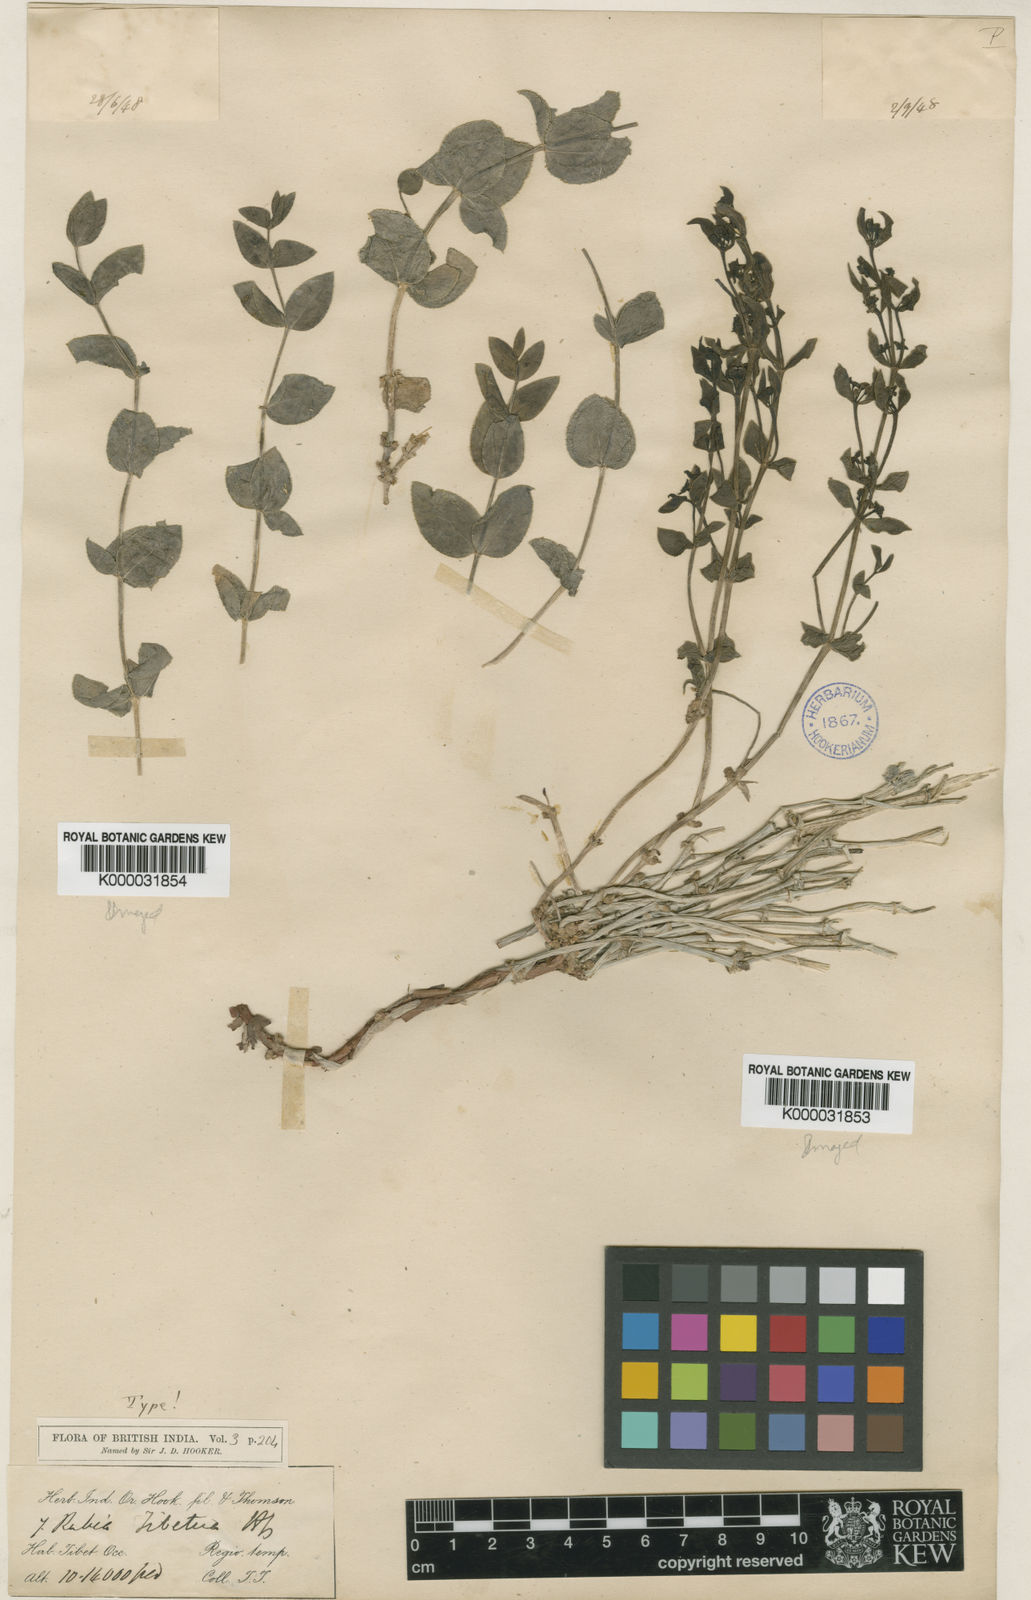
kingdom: Plantae
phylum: Tracheophyta
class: Magnoliopsida
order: Gentianales
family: Rubiaceae
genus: Rubia
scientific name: Rubia tibetica
